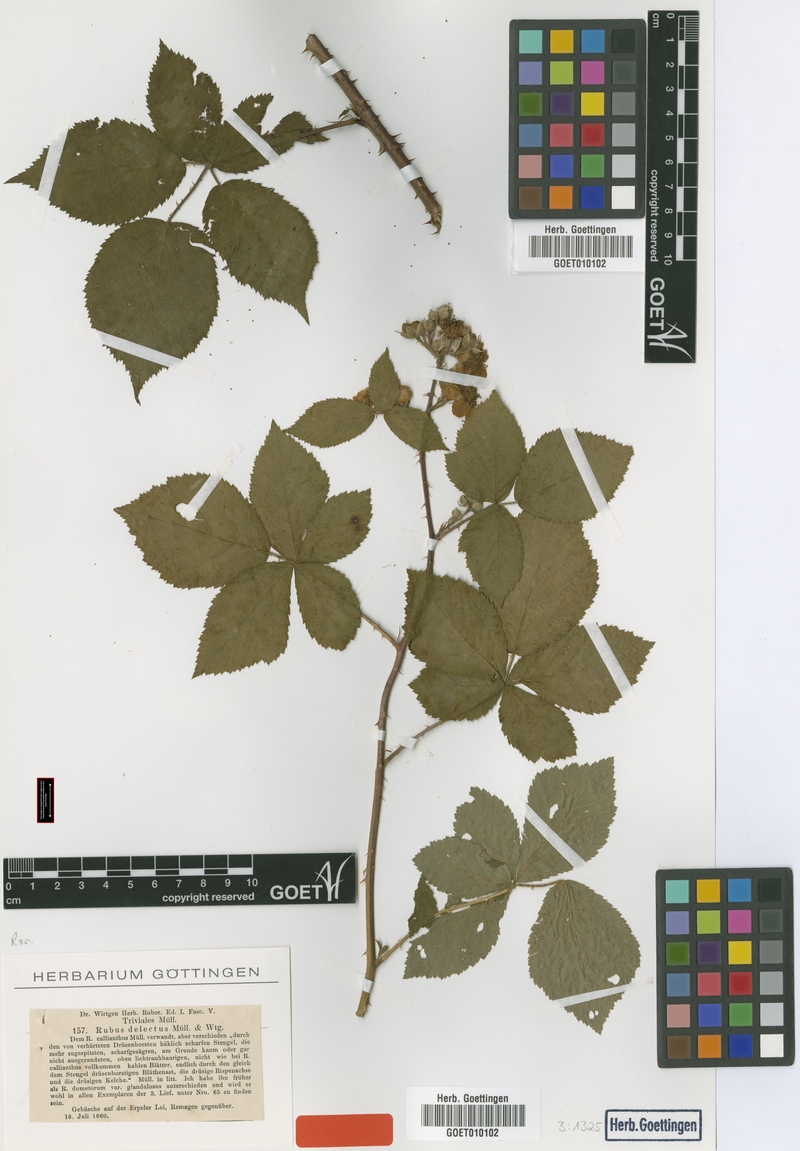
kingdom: Plantae
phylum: Tracheophyta
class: Magnoliopsida
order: Rosales
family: Rosaceae
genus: Rubus
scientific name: Rubus delectus
